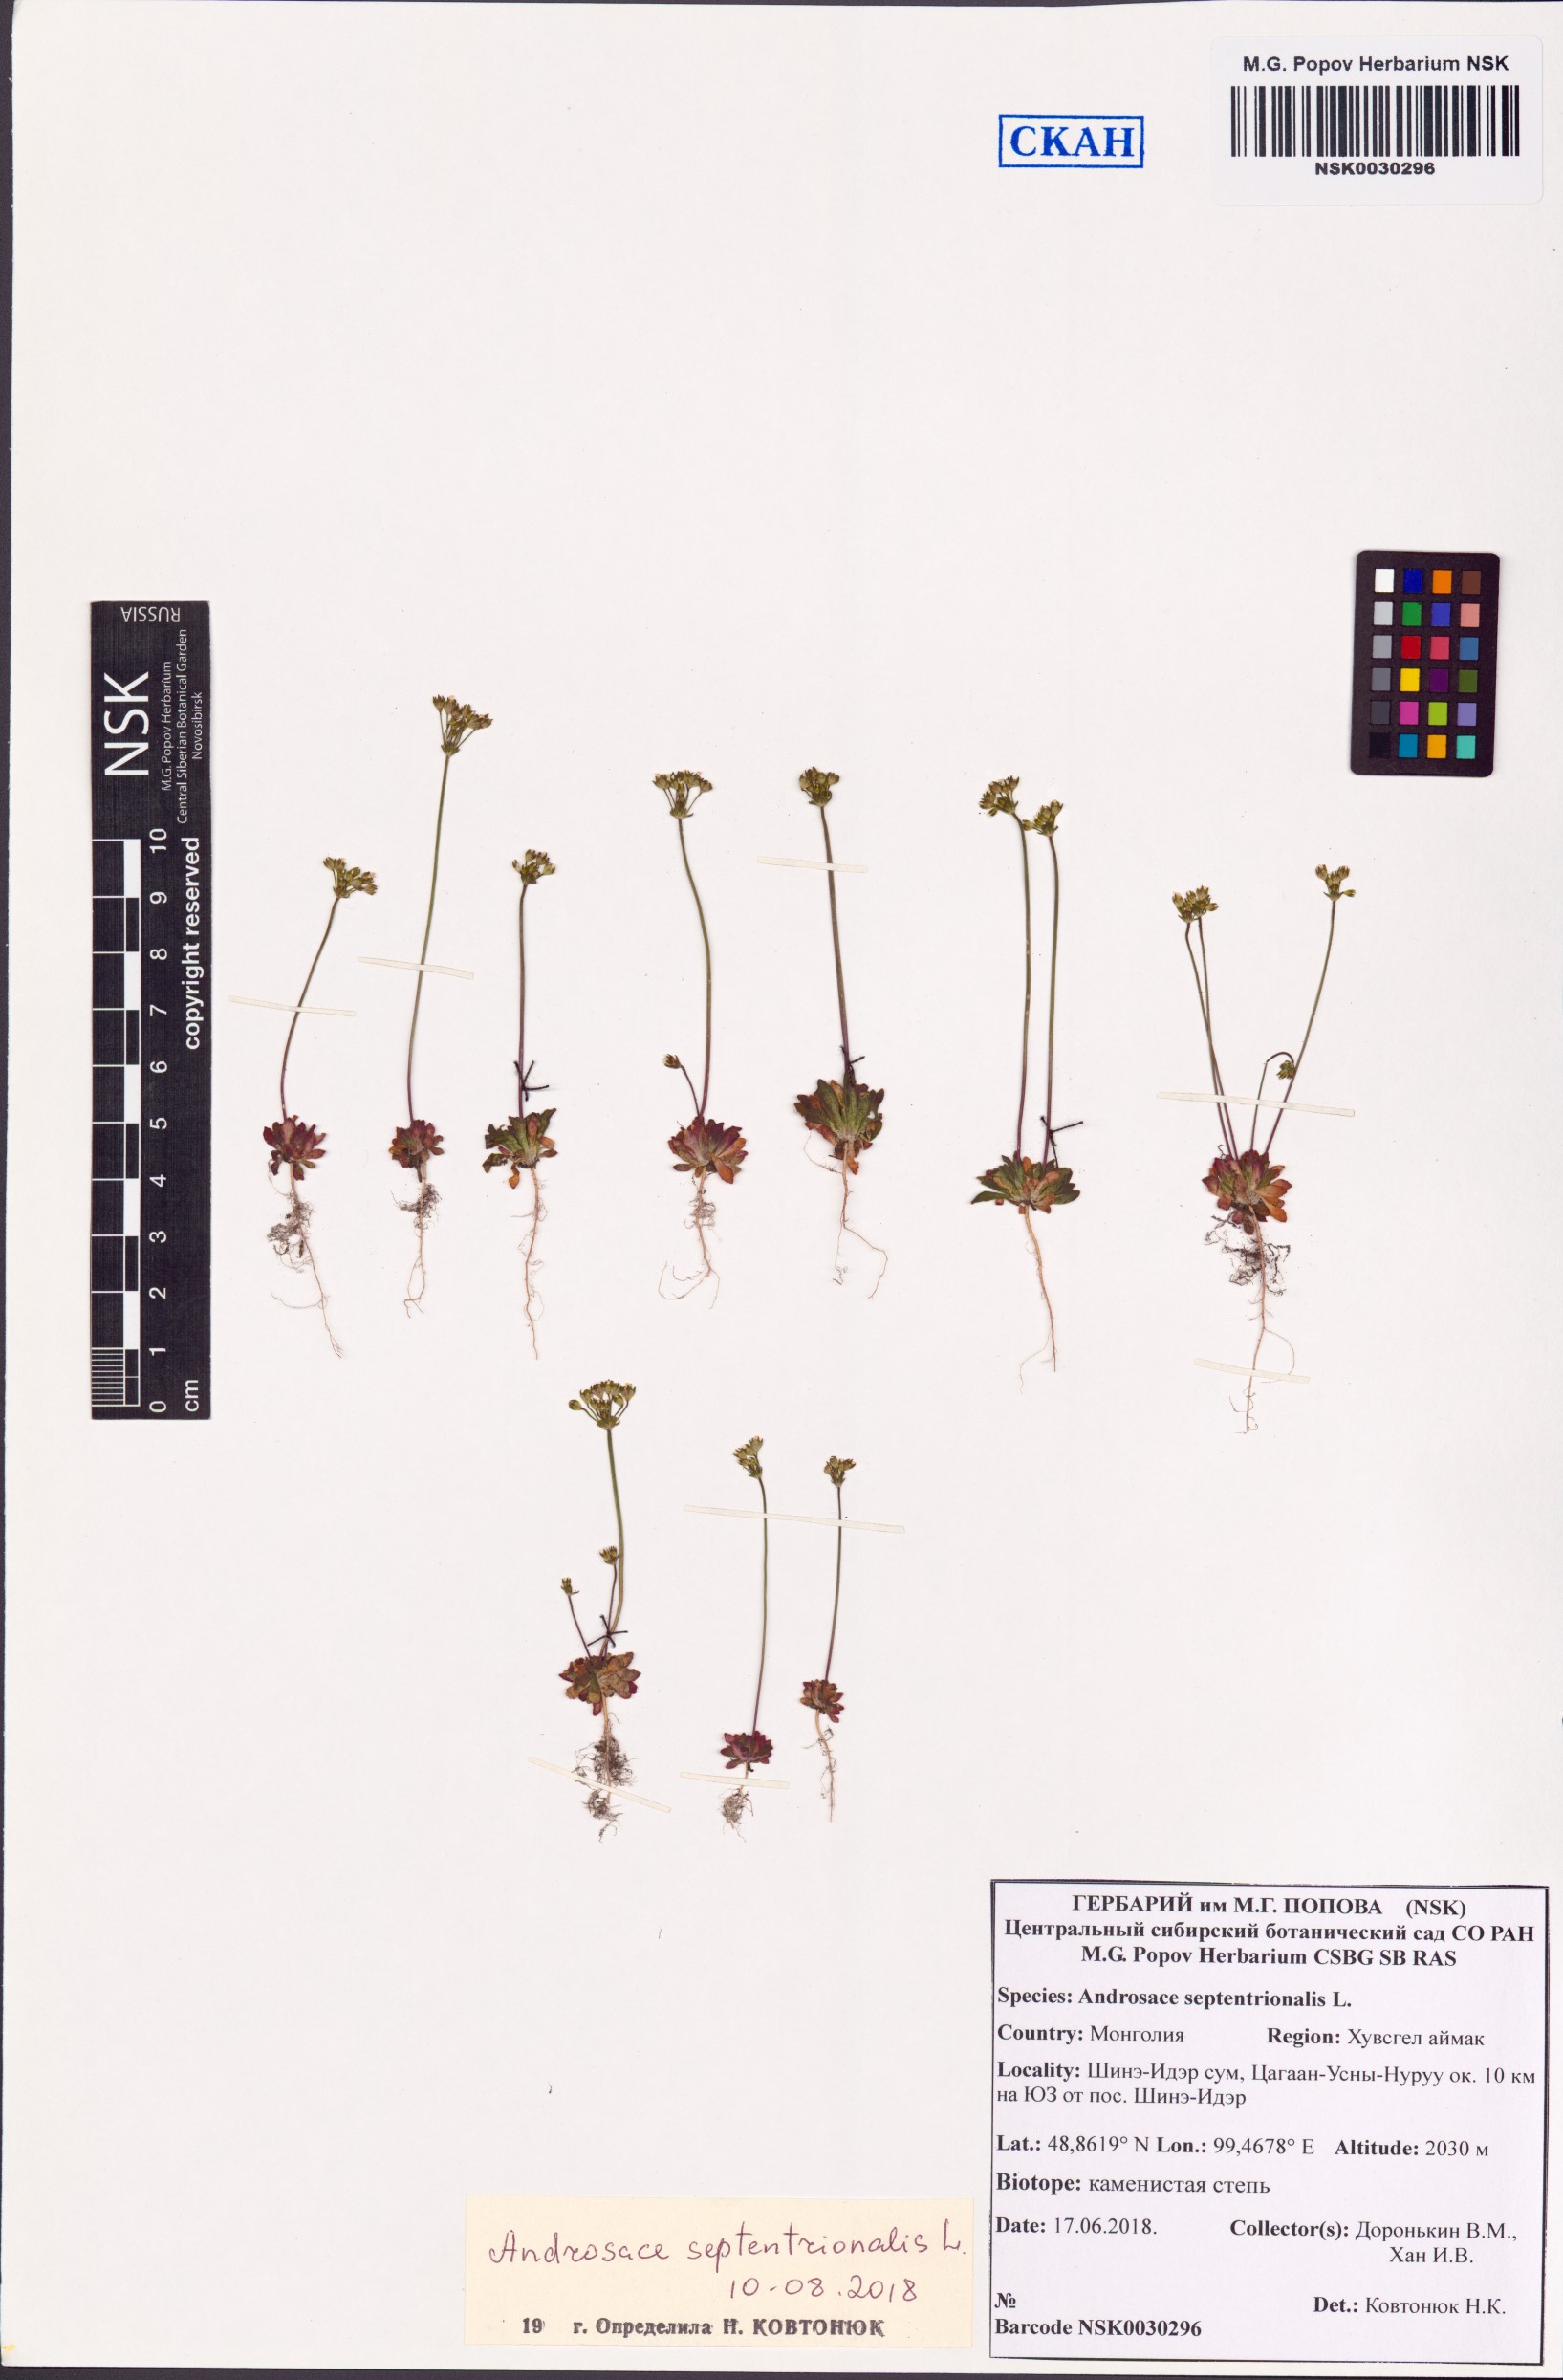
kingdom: Plantae
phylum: Tracheophyta
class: Magnoliopsida
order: Ericales
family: Primulaceae
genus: Androsace
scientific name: Androsace septentrionalis
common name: Hairy northern fairy-candelabra
